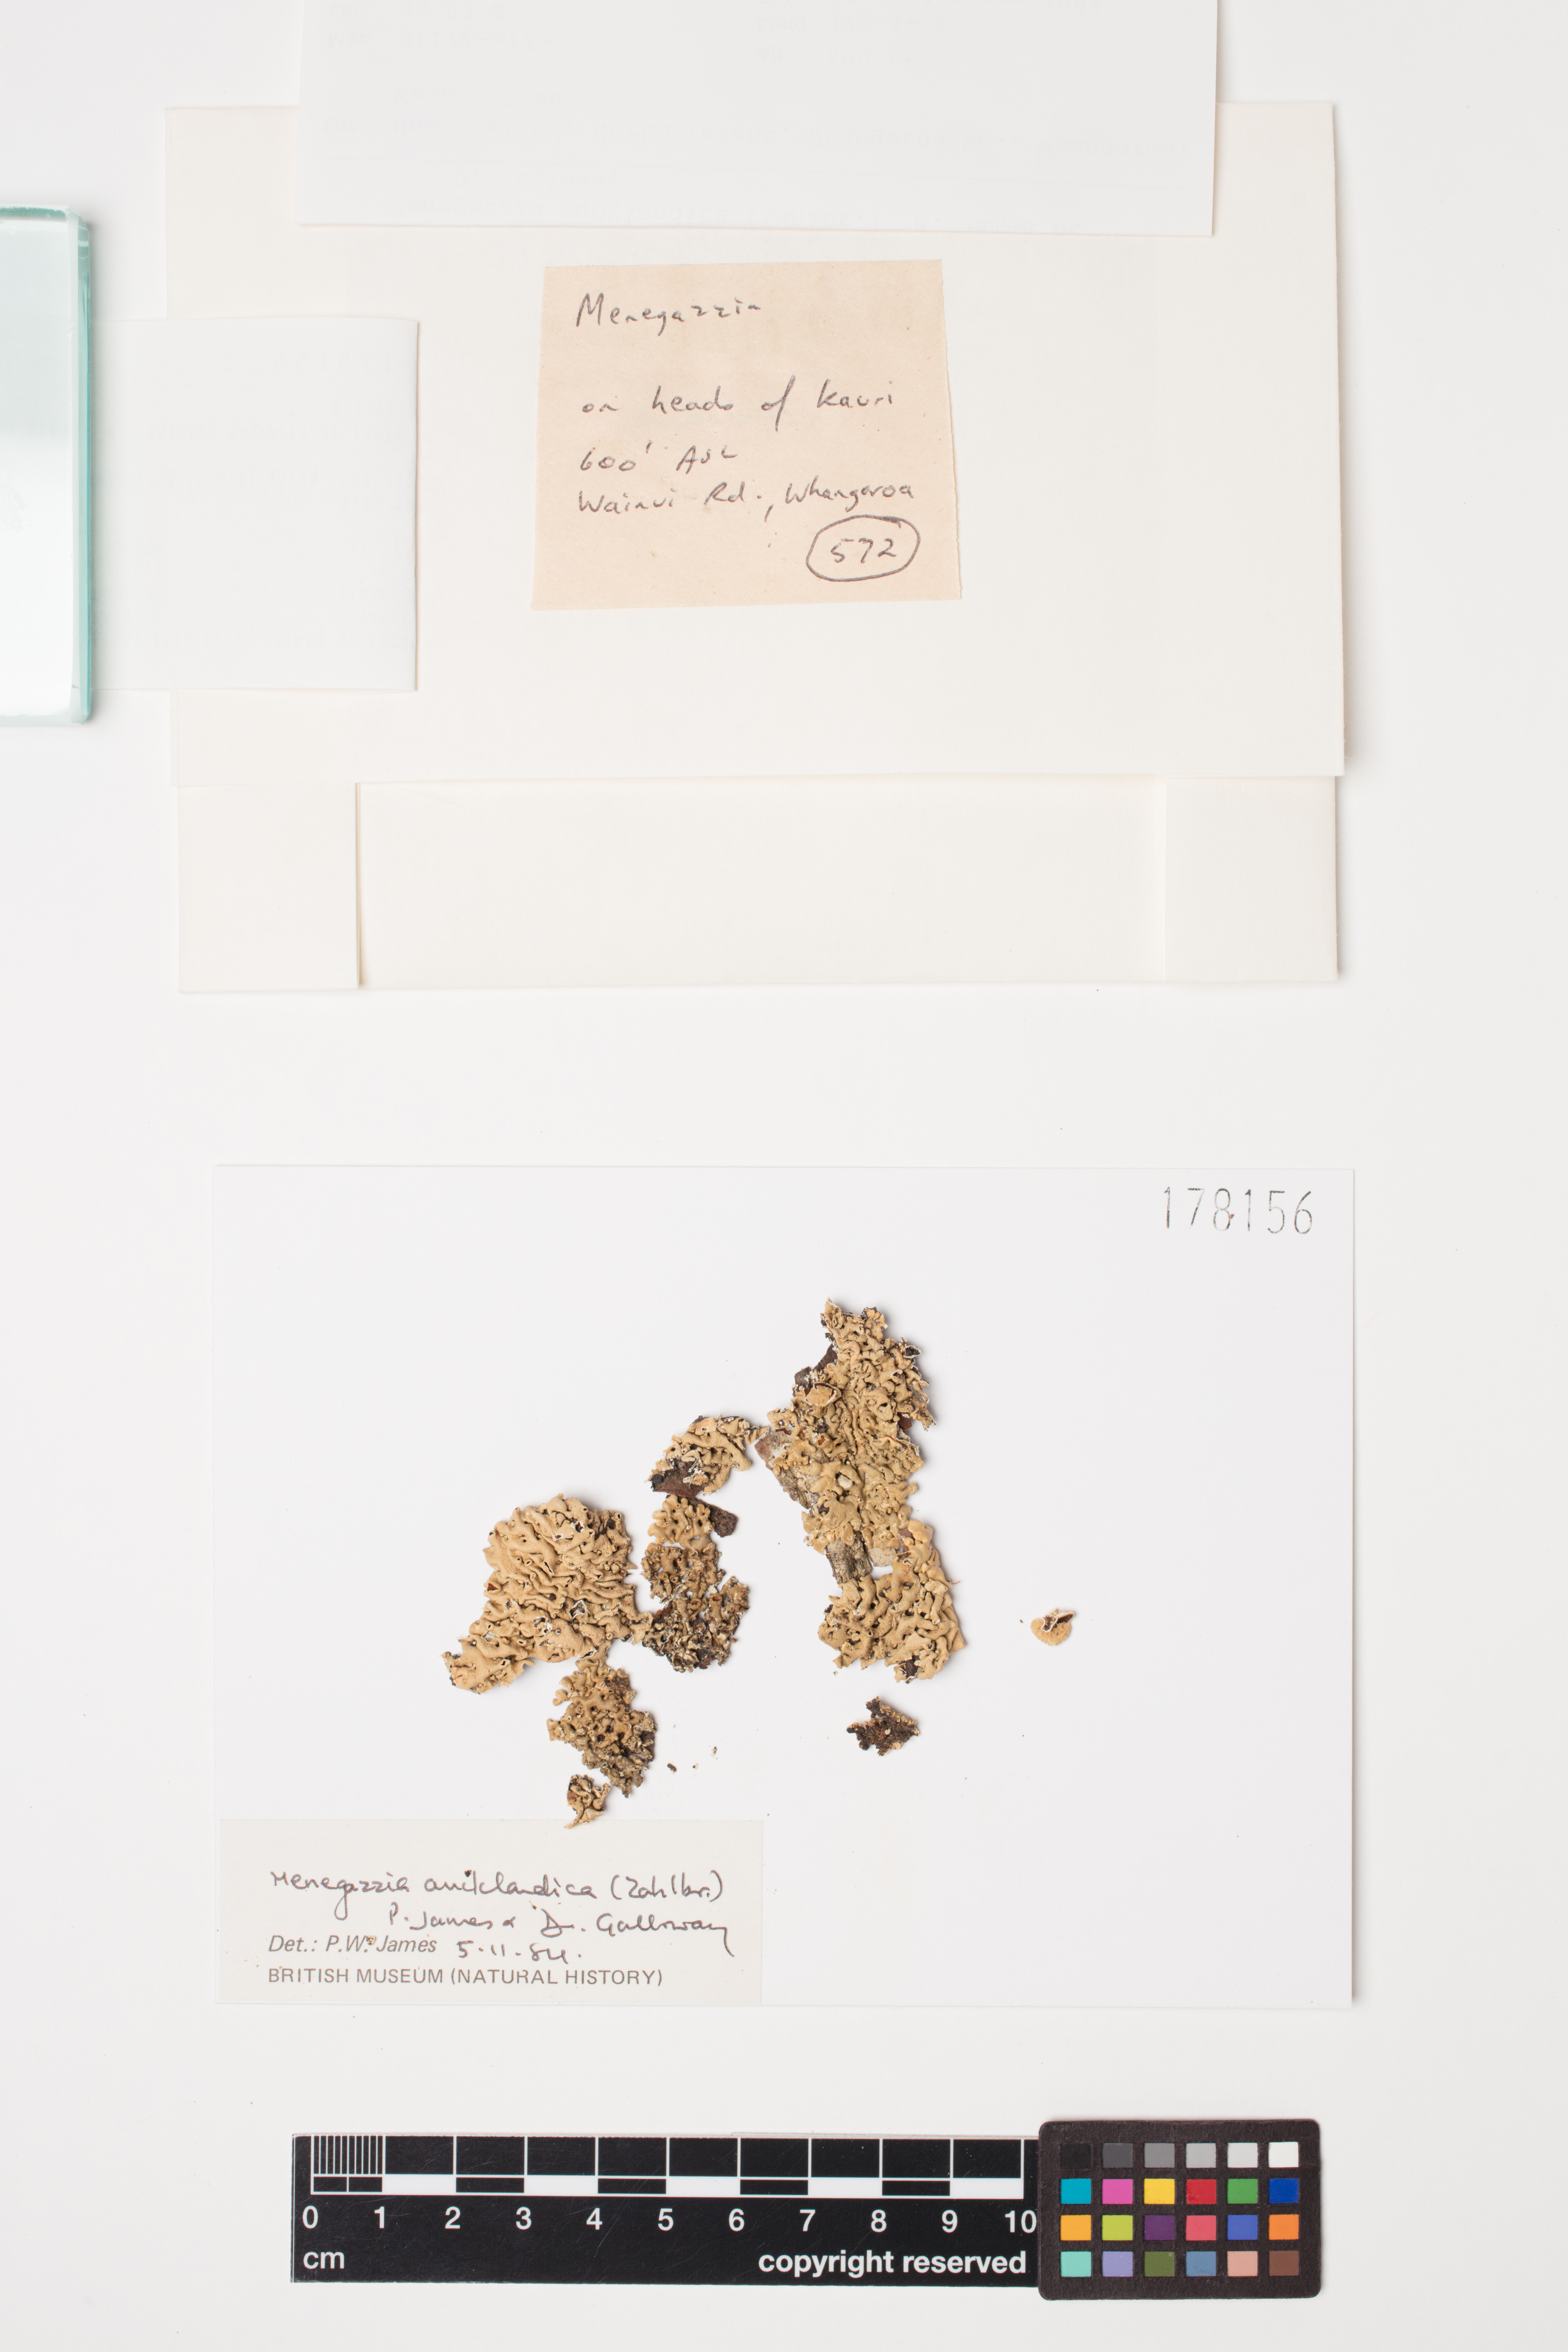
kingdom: Fungi
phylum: Ascomycota
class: Lecanoromycetes
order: Lecanorales
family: Parmeliaceae
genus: Menegazzia
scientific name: Menegazzia aucklandica
